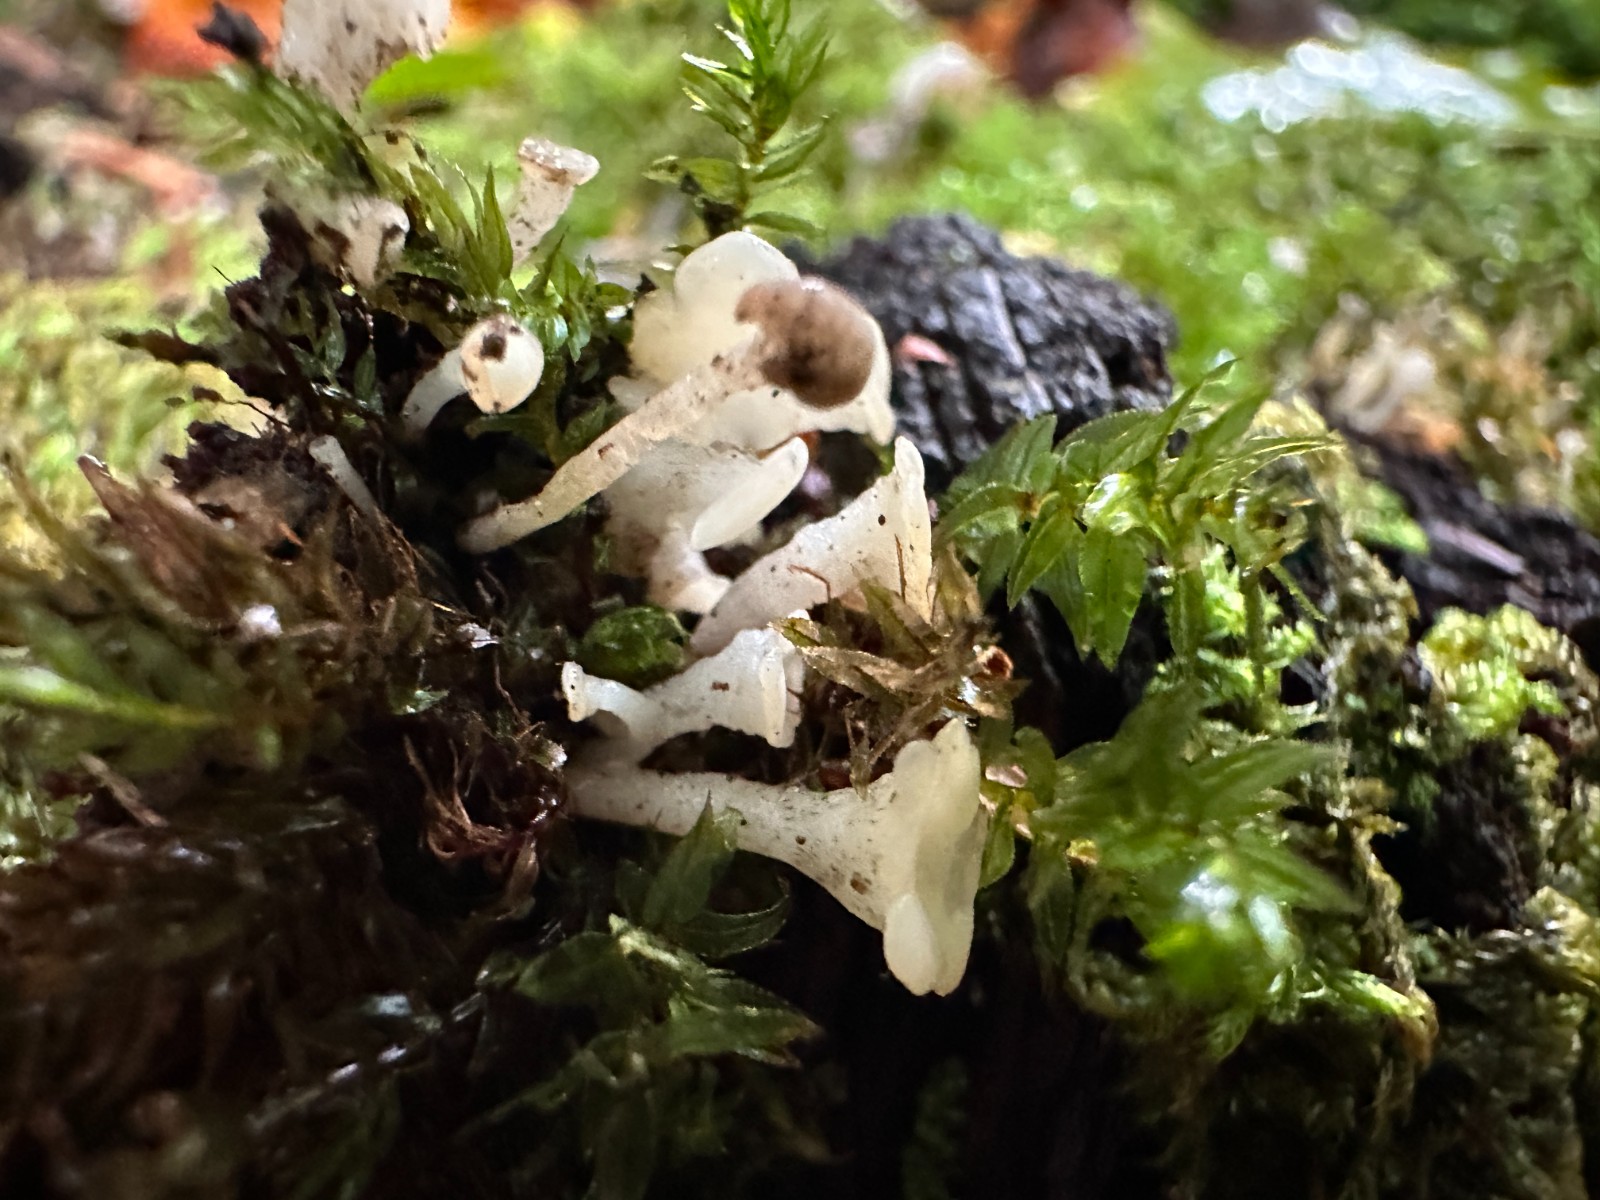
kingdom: Fungi
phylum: Ascomycota
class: Leotiomycetes
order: Helotiales
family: Tricladiaceae
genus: Cudoniella
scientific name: Cudoniella acicularis
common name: ege-dyndskive
